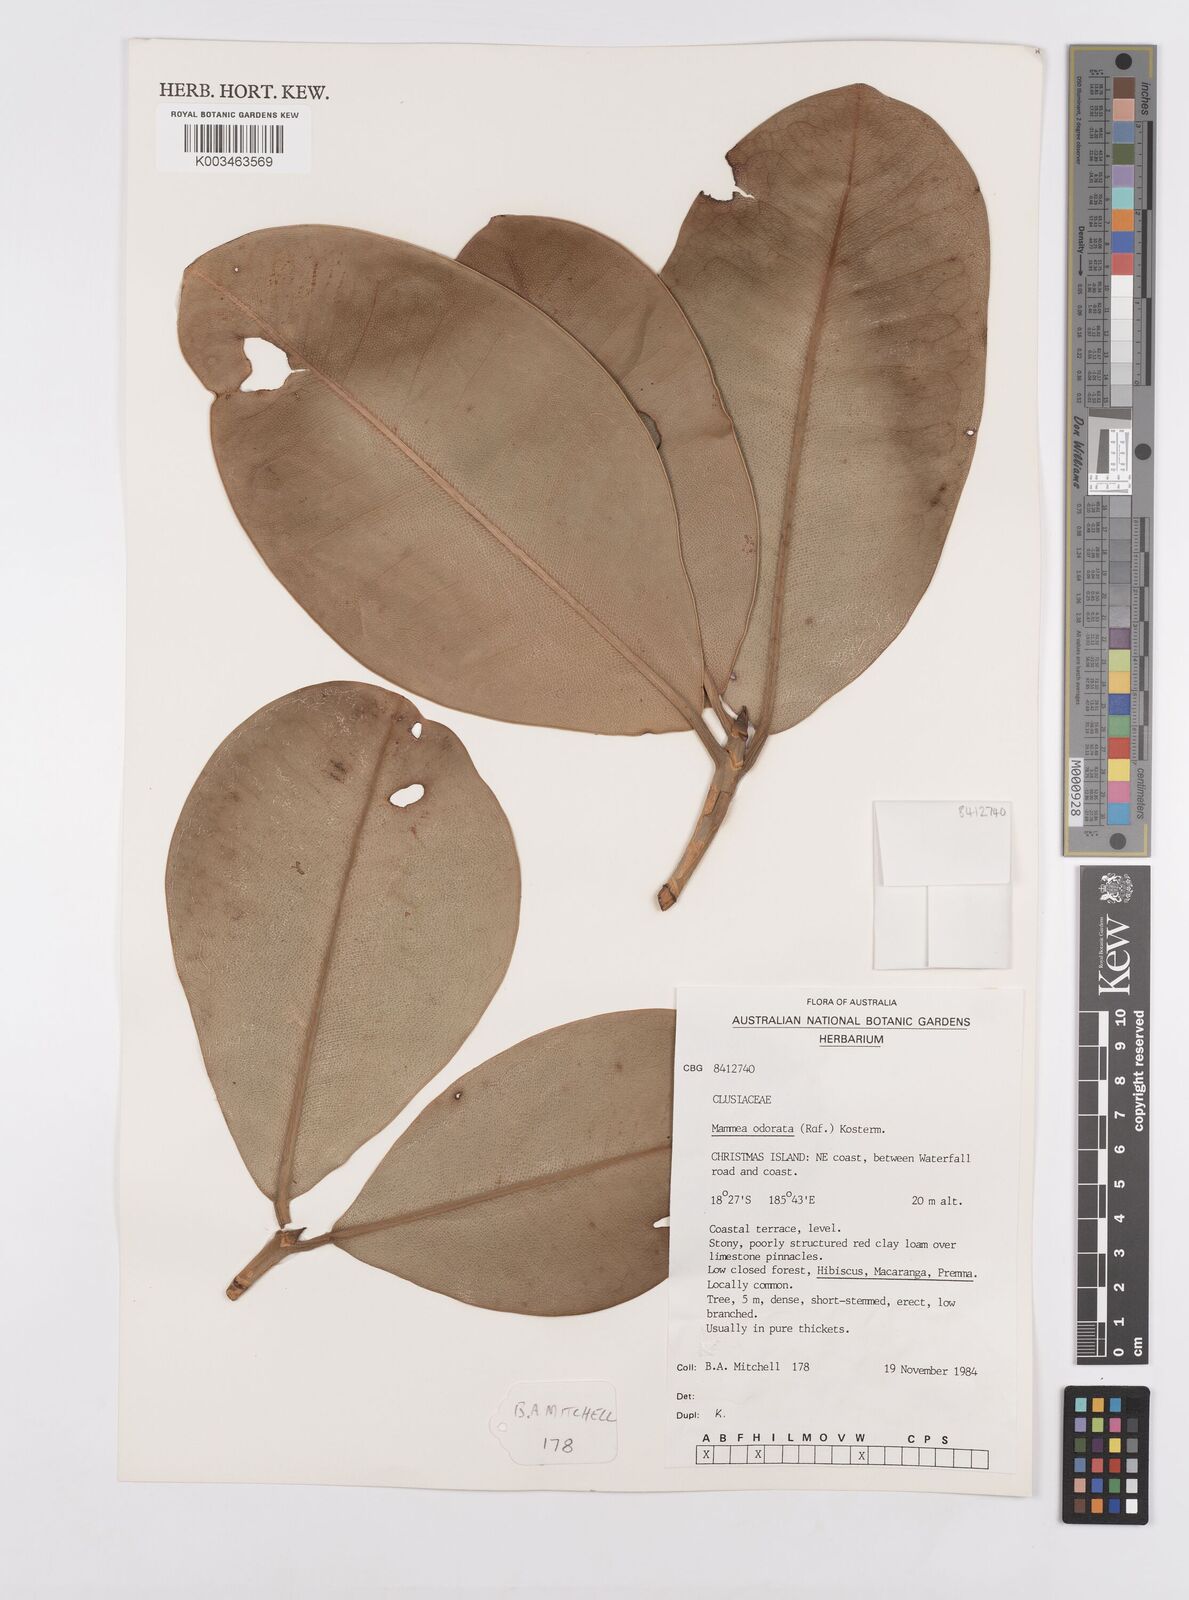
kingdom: Plantae
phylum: Tracheophyta
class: Magnoliopsida
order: Malpighiales
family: Calophyllaceae
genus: Mammea
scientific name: Mammea odorata
